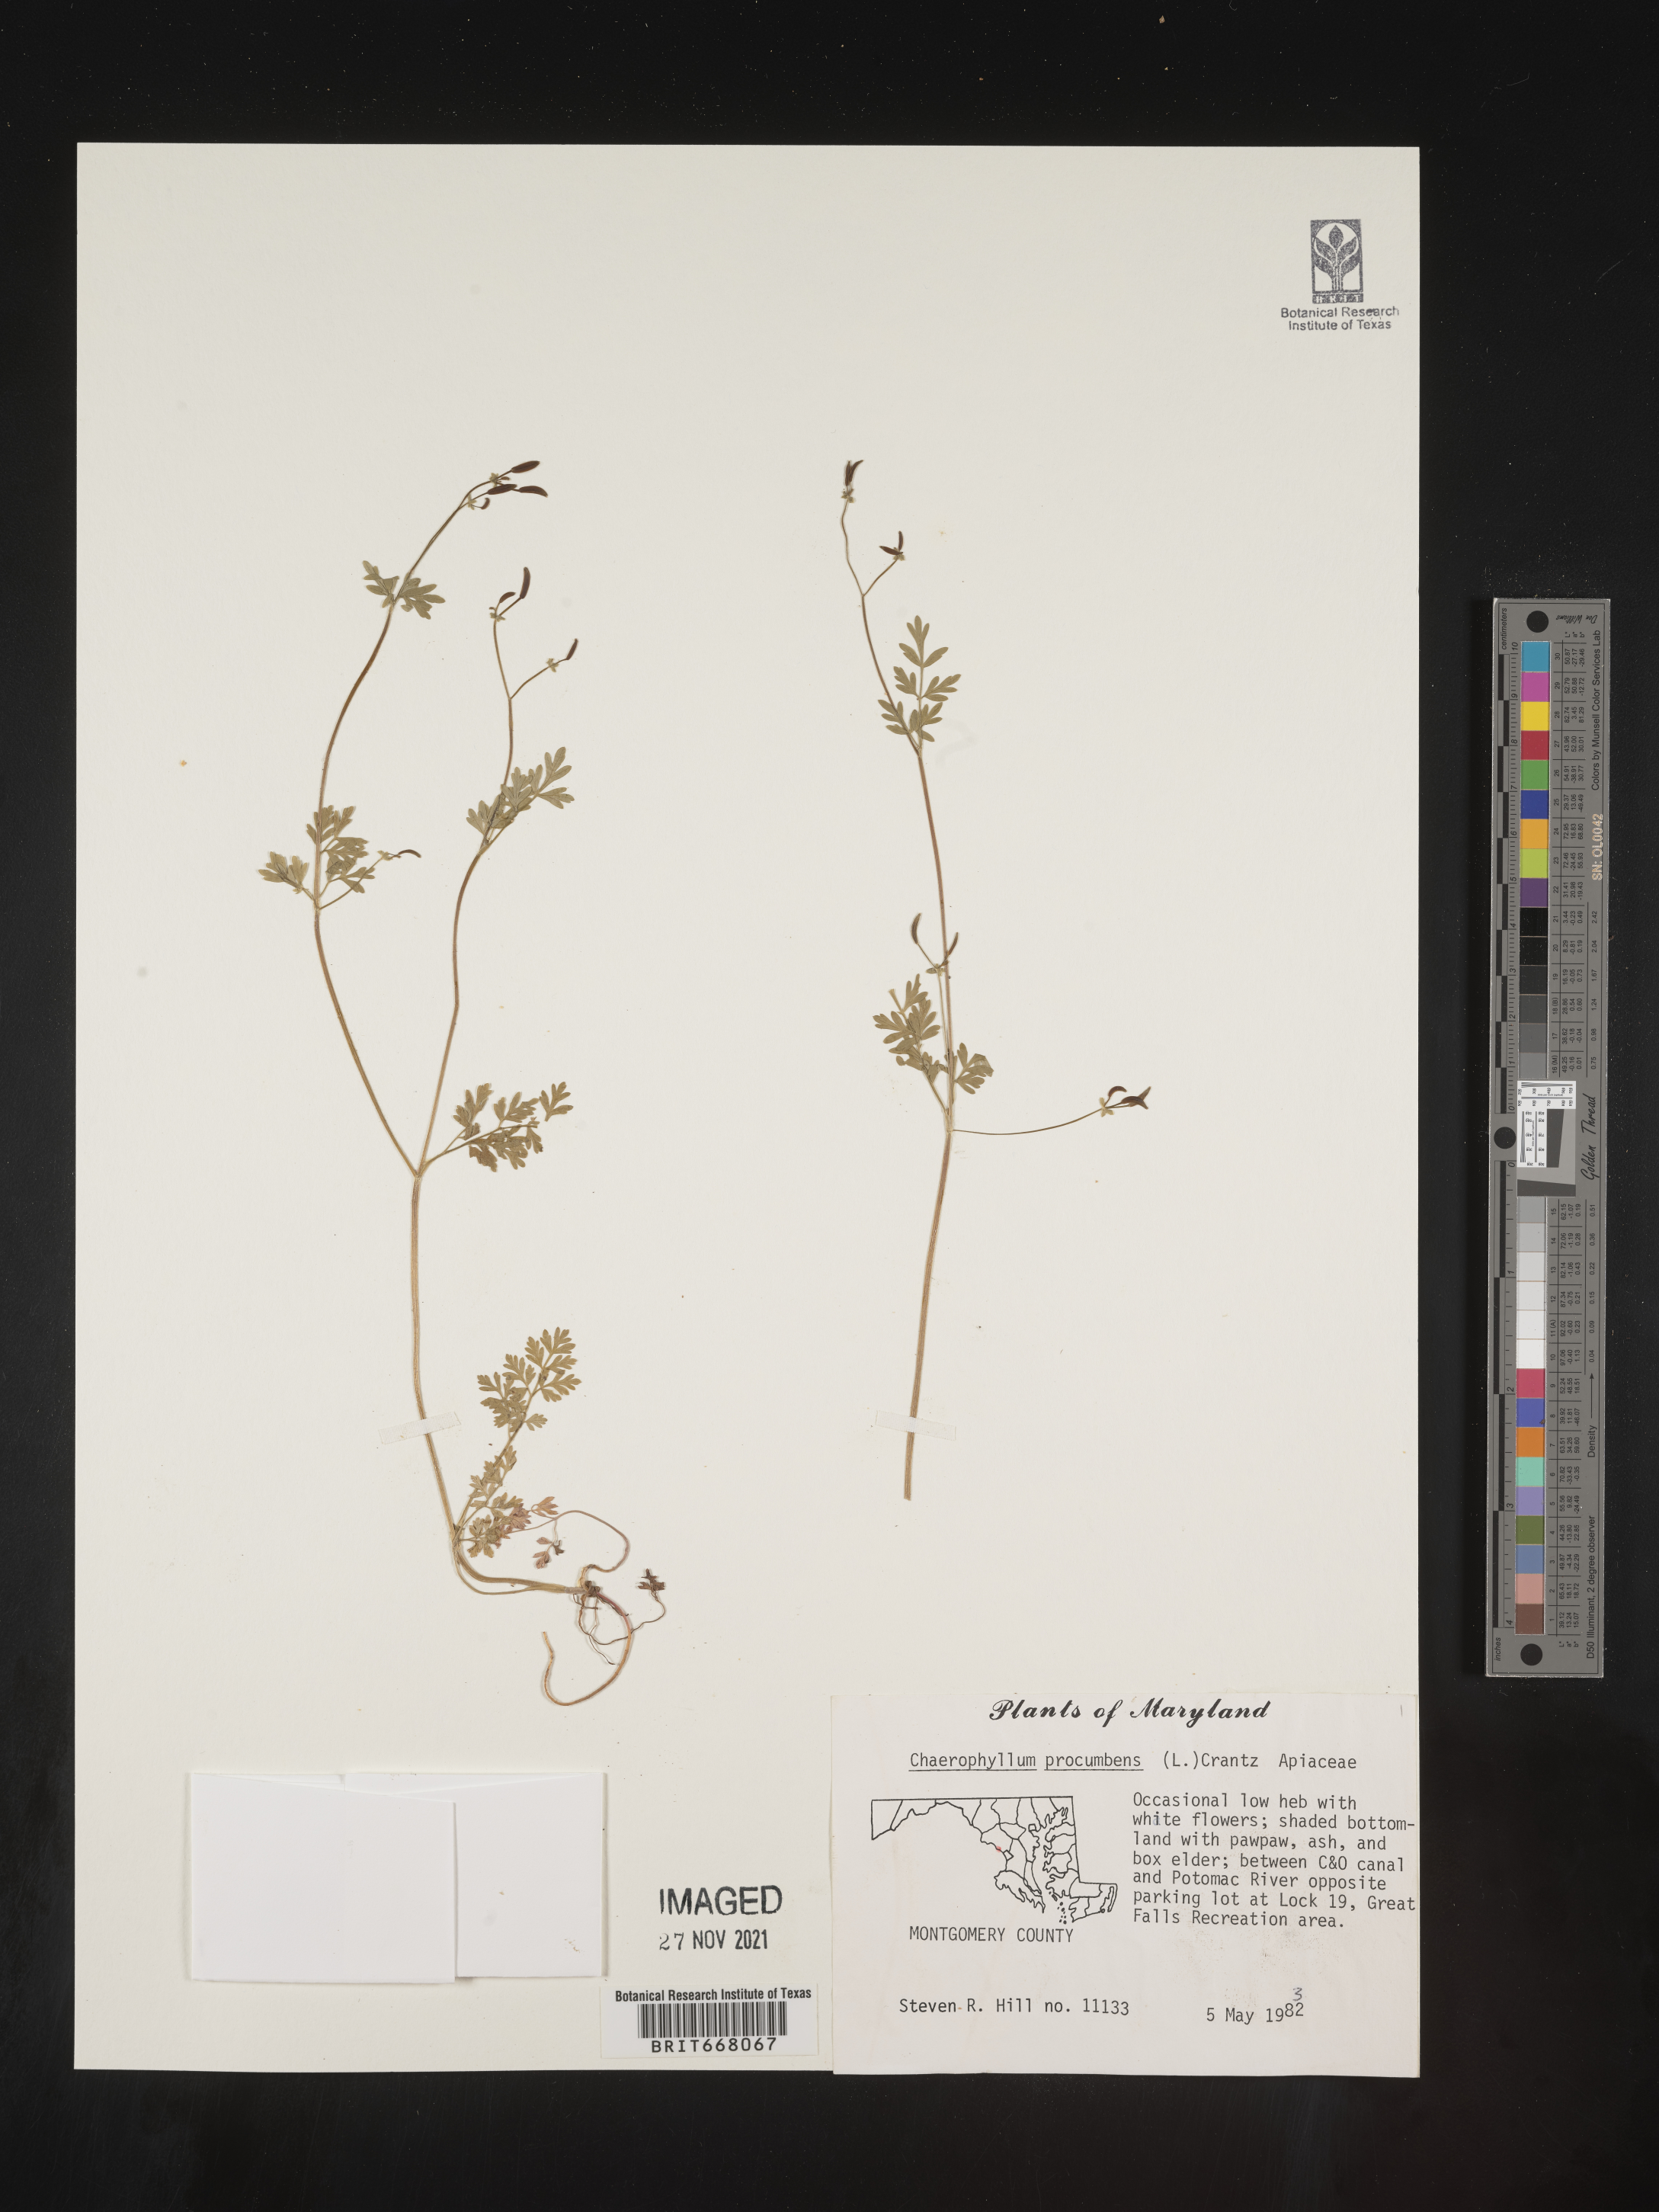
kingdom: Plantae
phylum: Tracheophyta
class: Magnoliopsida
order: Apiales
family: Apiaceae
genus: Chaerophyllum
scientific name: Chaerophyllum procumbens
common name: Spreading chervil
